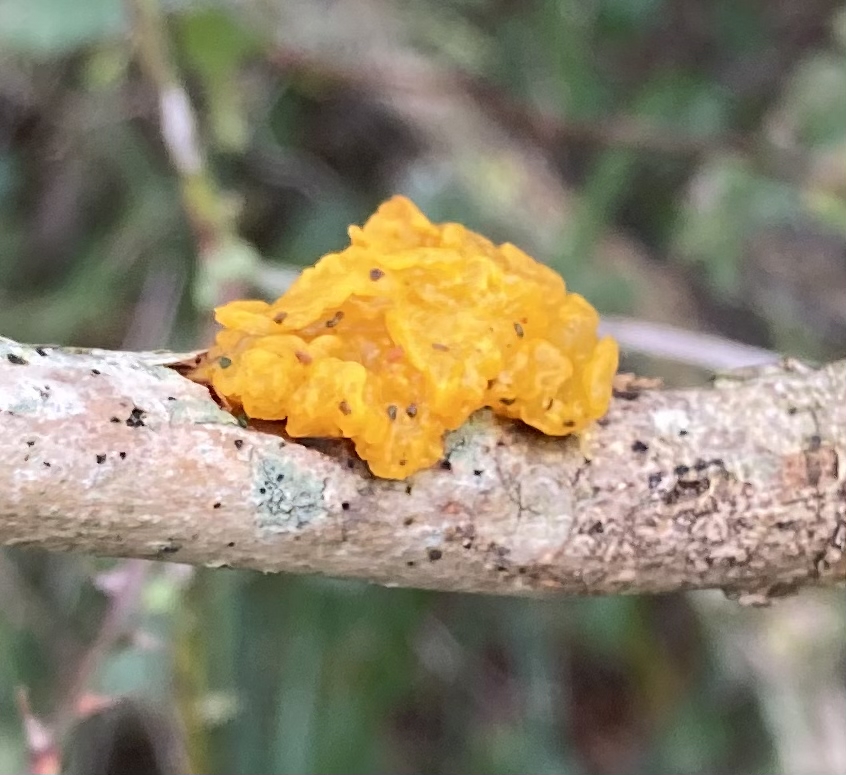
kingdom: Fungi
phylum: Basidiomycota
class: Tremellomycetes
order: Tremellales
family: Tremellaceae
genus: Tremella
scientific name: Tremella mesenterica
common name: gul bævresvamp
